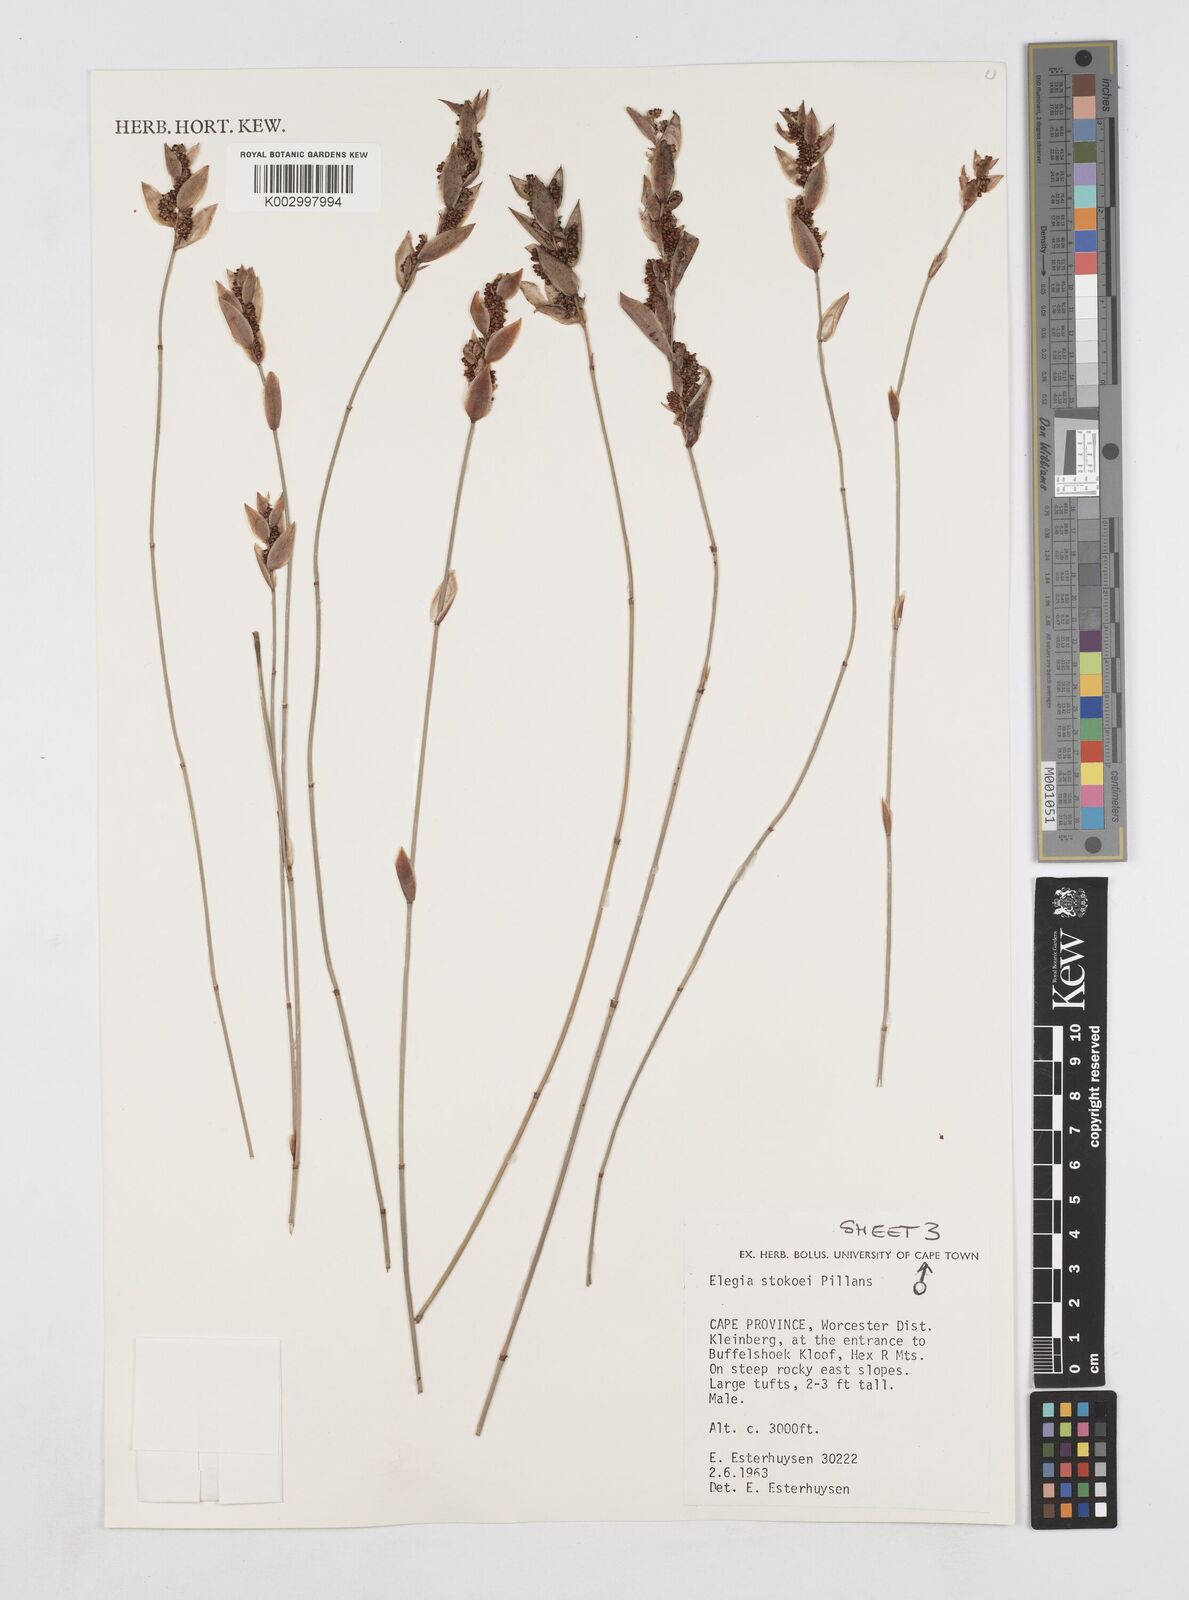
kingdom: Plantae
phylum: Tracheophyta
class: Liliopsida
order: Poales
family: Restionaceae
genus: Elegia
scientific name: Elegia stokoei
